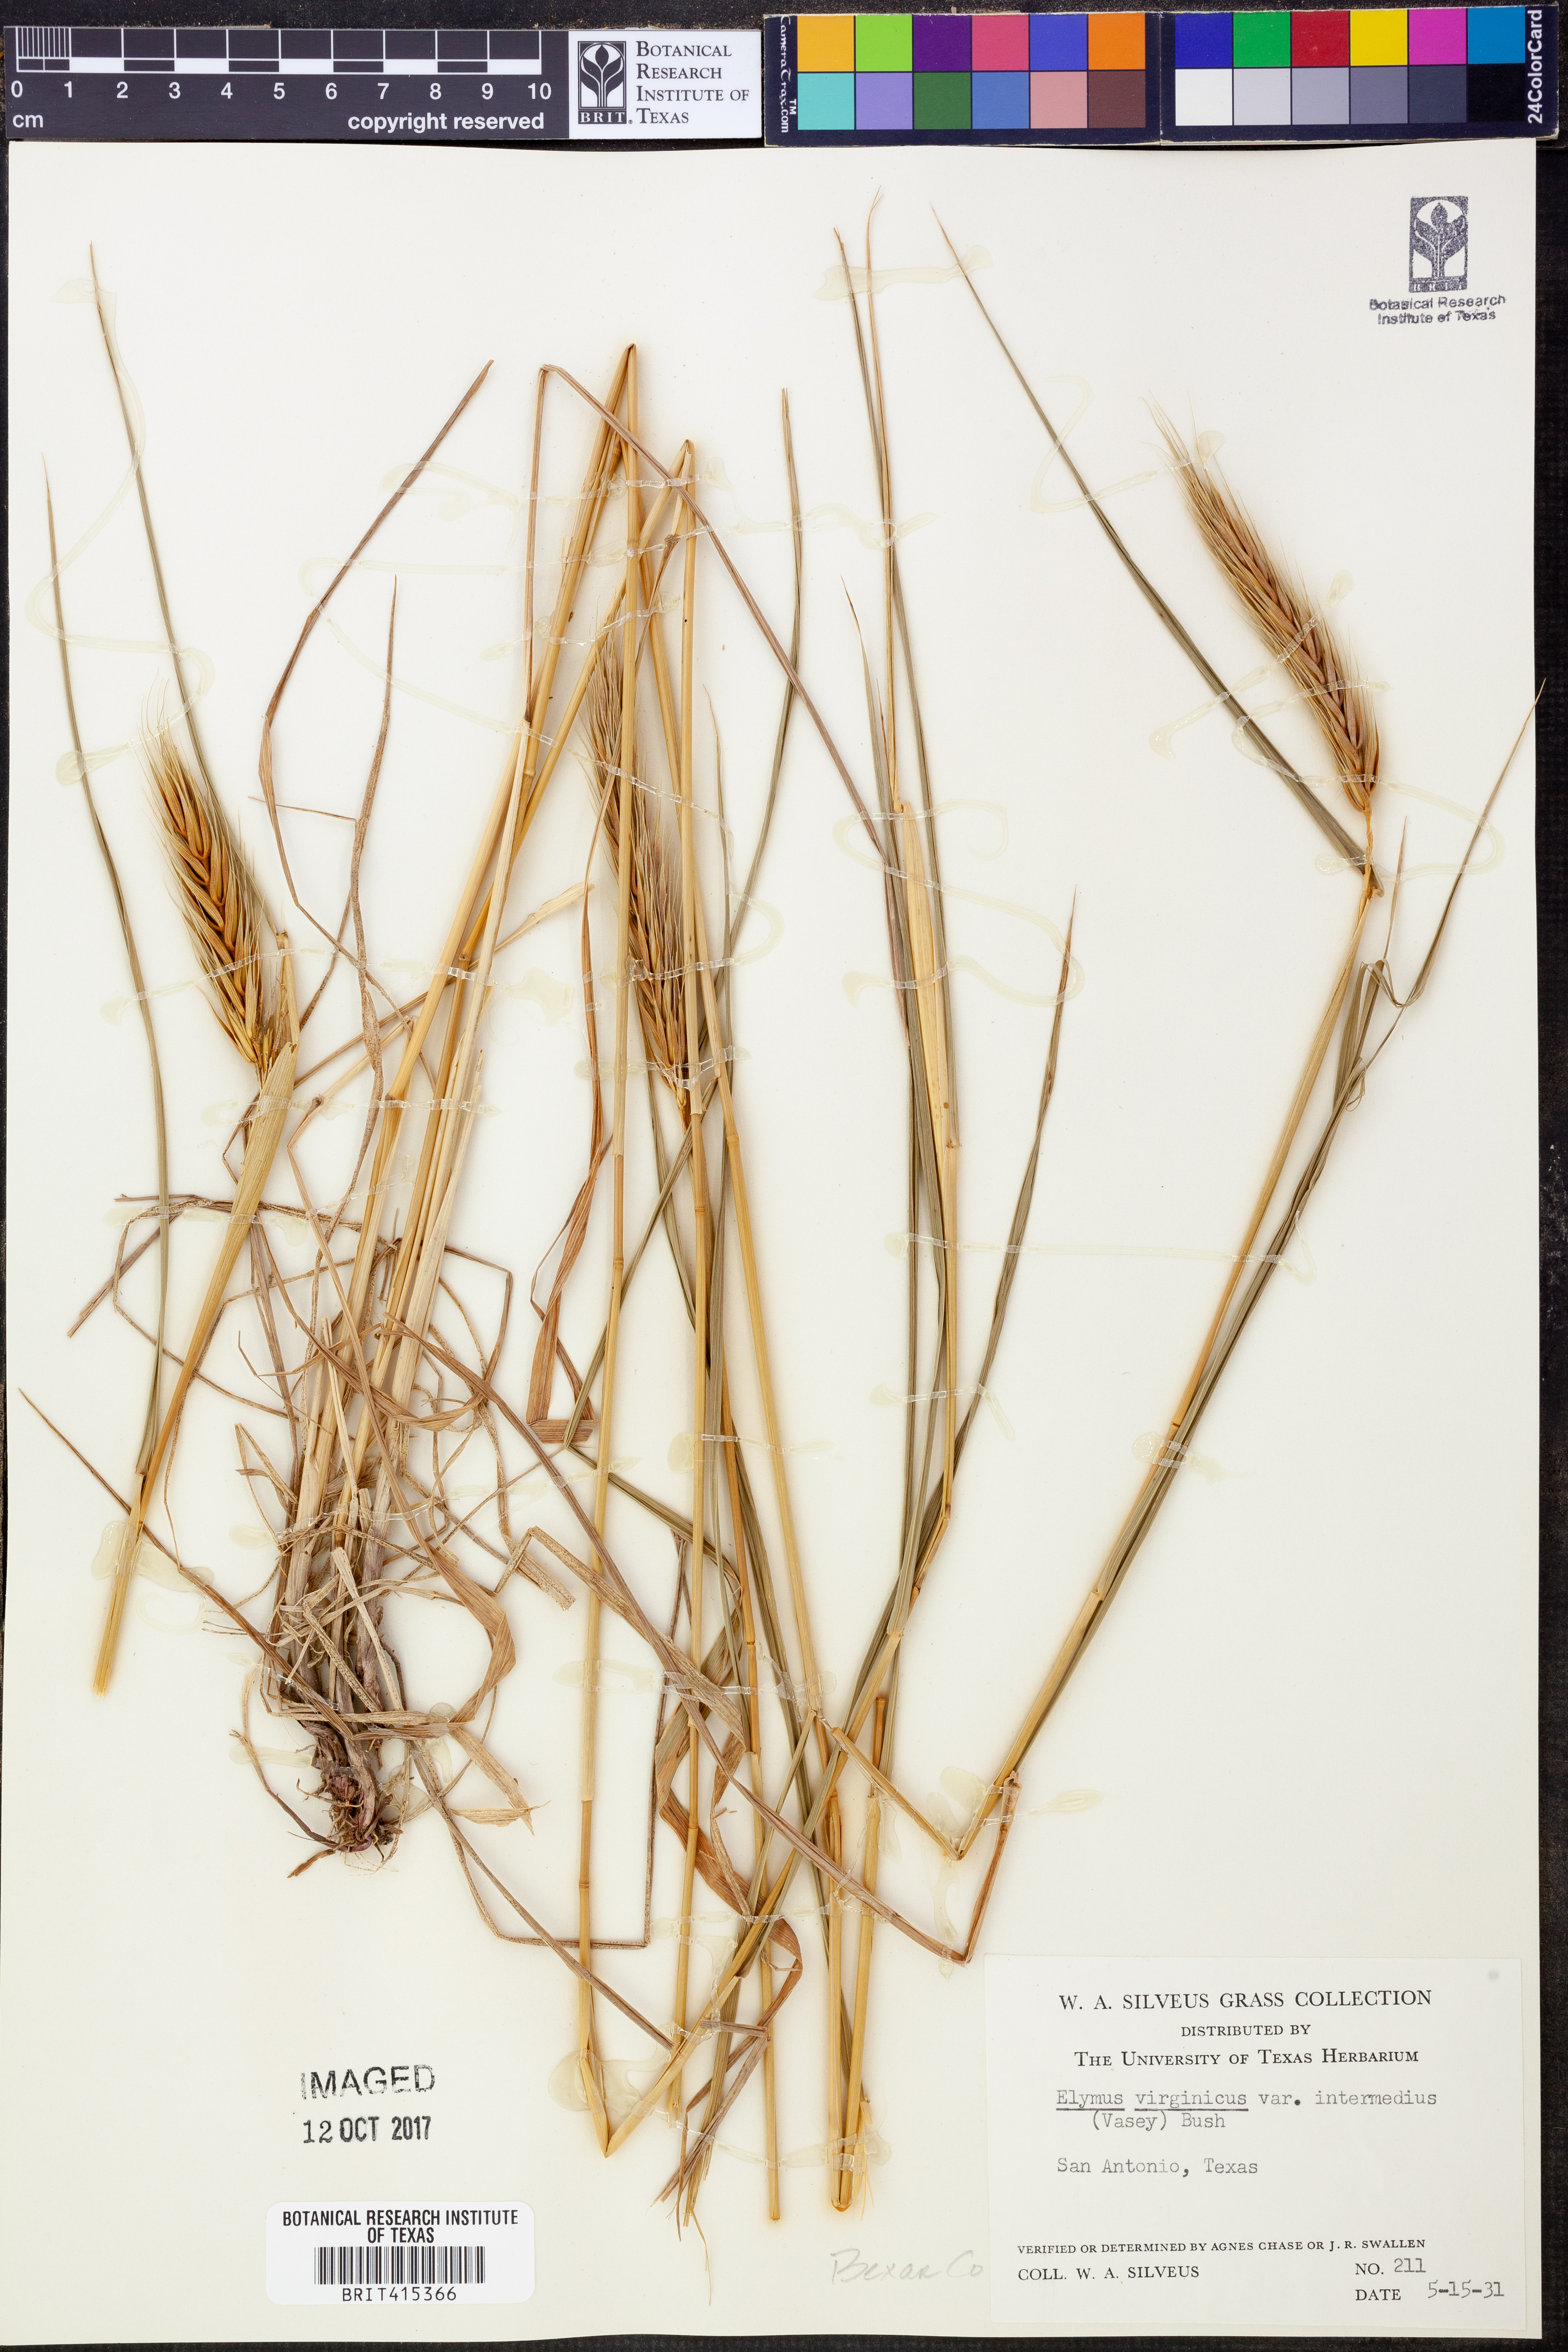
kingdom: Plantae
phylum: Tracheophyta
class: Liliopsida
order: Poales
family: Poaceae
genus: Elymus
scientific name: Elymus virginicus
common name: Common eastern wildrye
